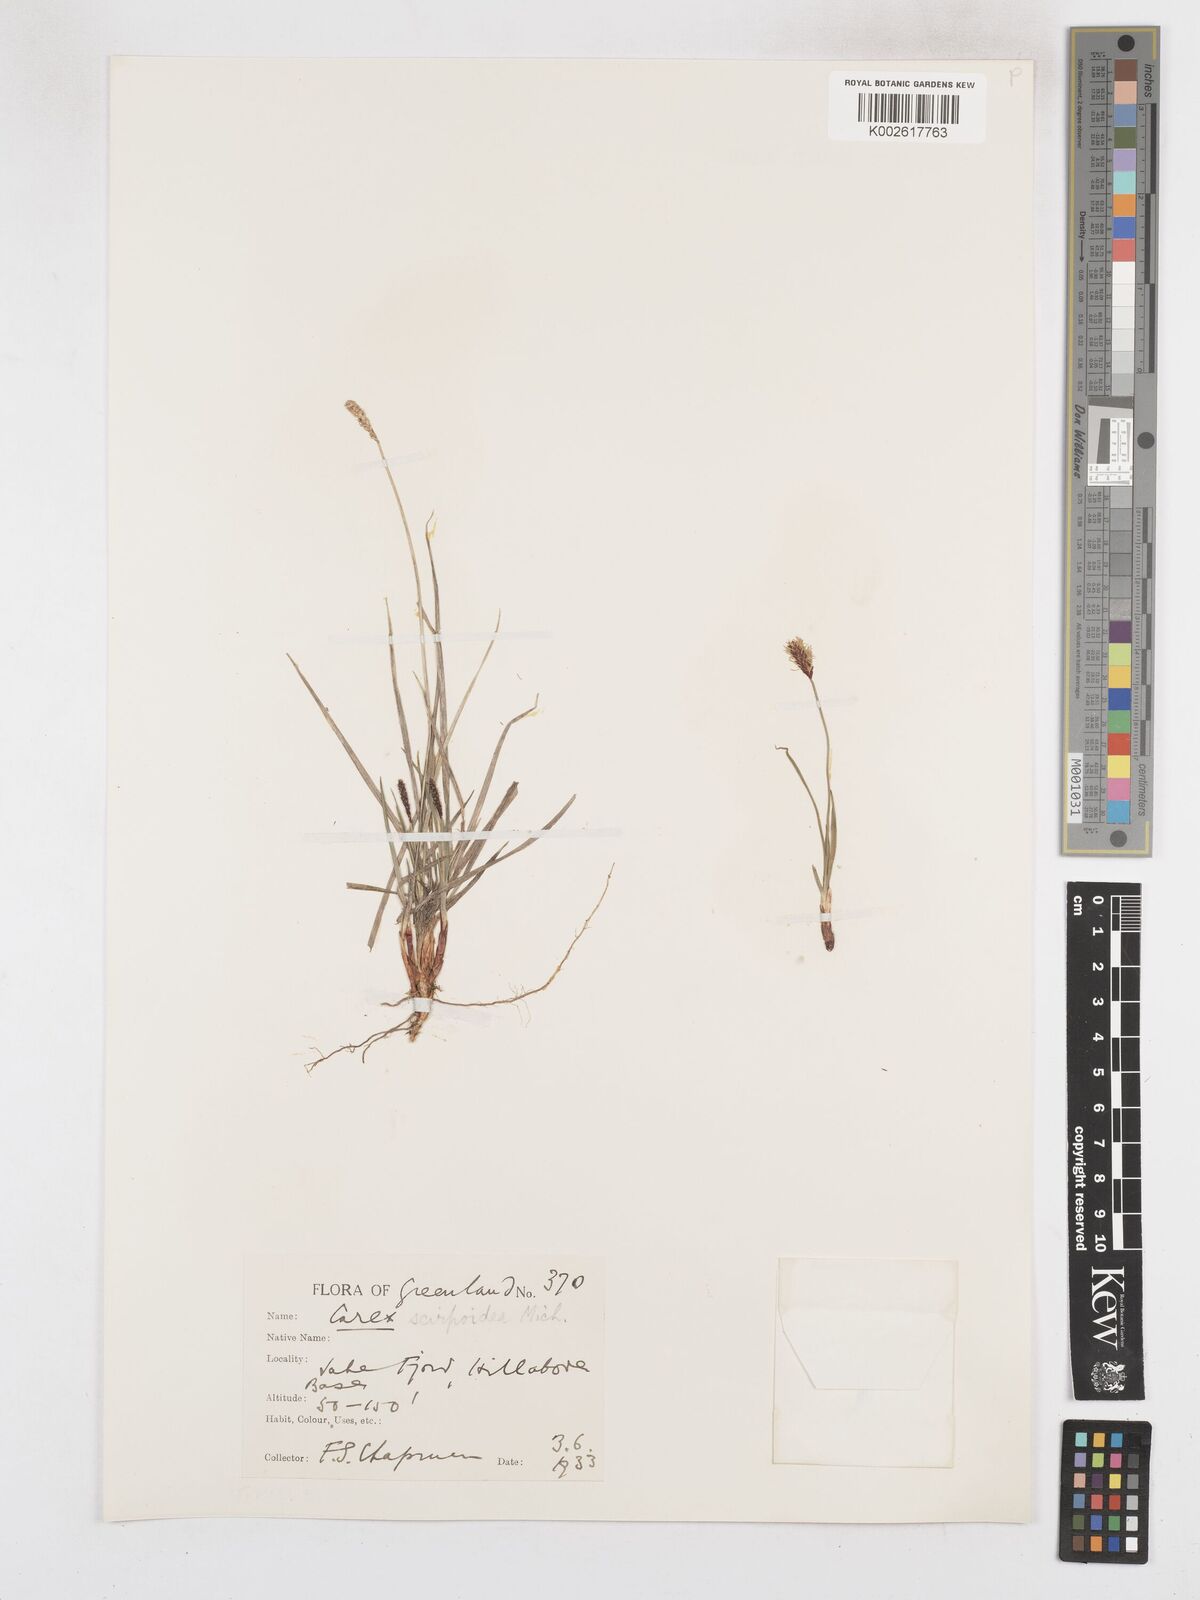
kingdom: Plantae
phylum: Tracheophyta
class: Liliopsida
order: Poales
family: Cyperaceae
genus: Carex
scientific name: Carex scirpoidea
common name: Canada single-spike sedge
